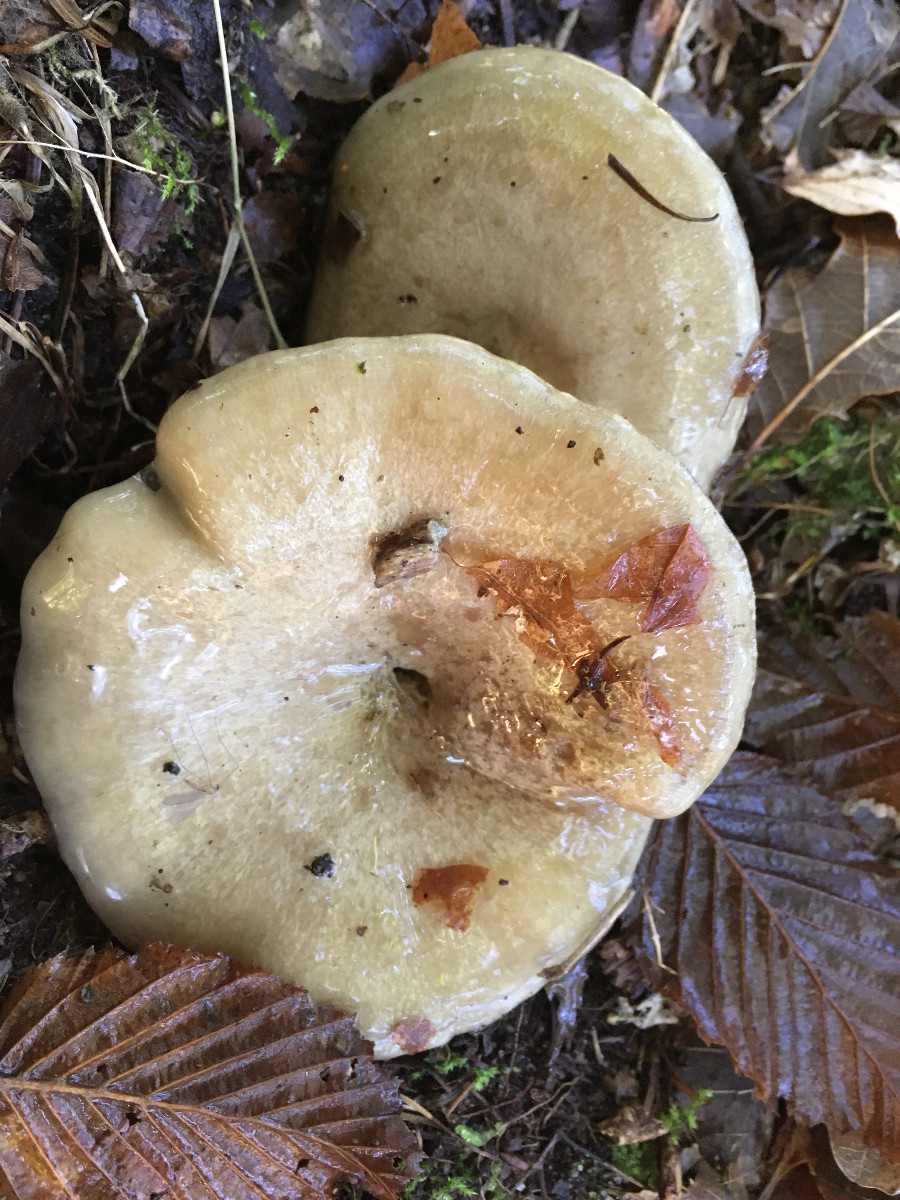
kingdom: Fungi
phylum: Basidiomycota
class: Agaricomycetes
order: Russulales
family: Russulaceae
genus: Lactarius
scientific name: Lactarius blennius
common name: dråbeplettet mælkehat
